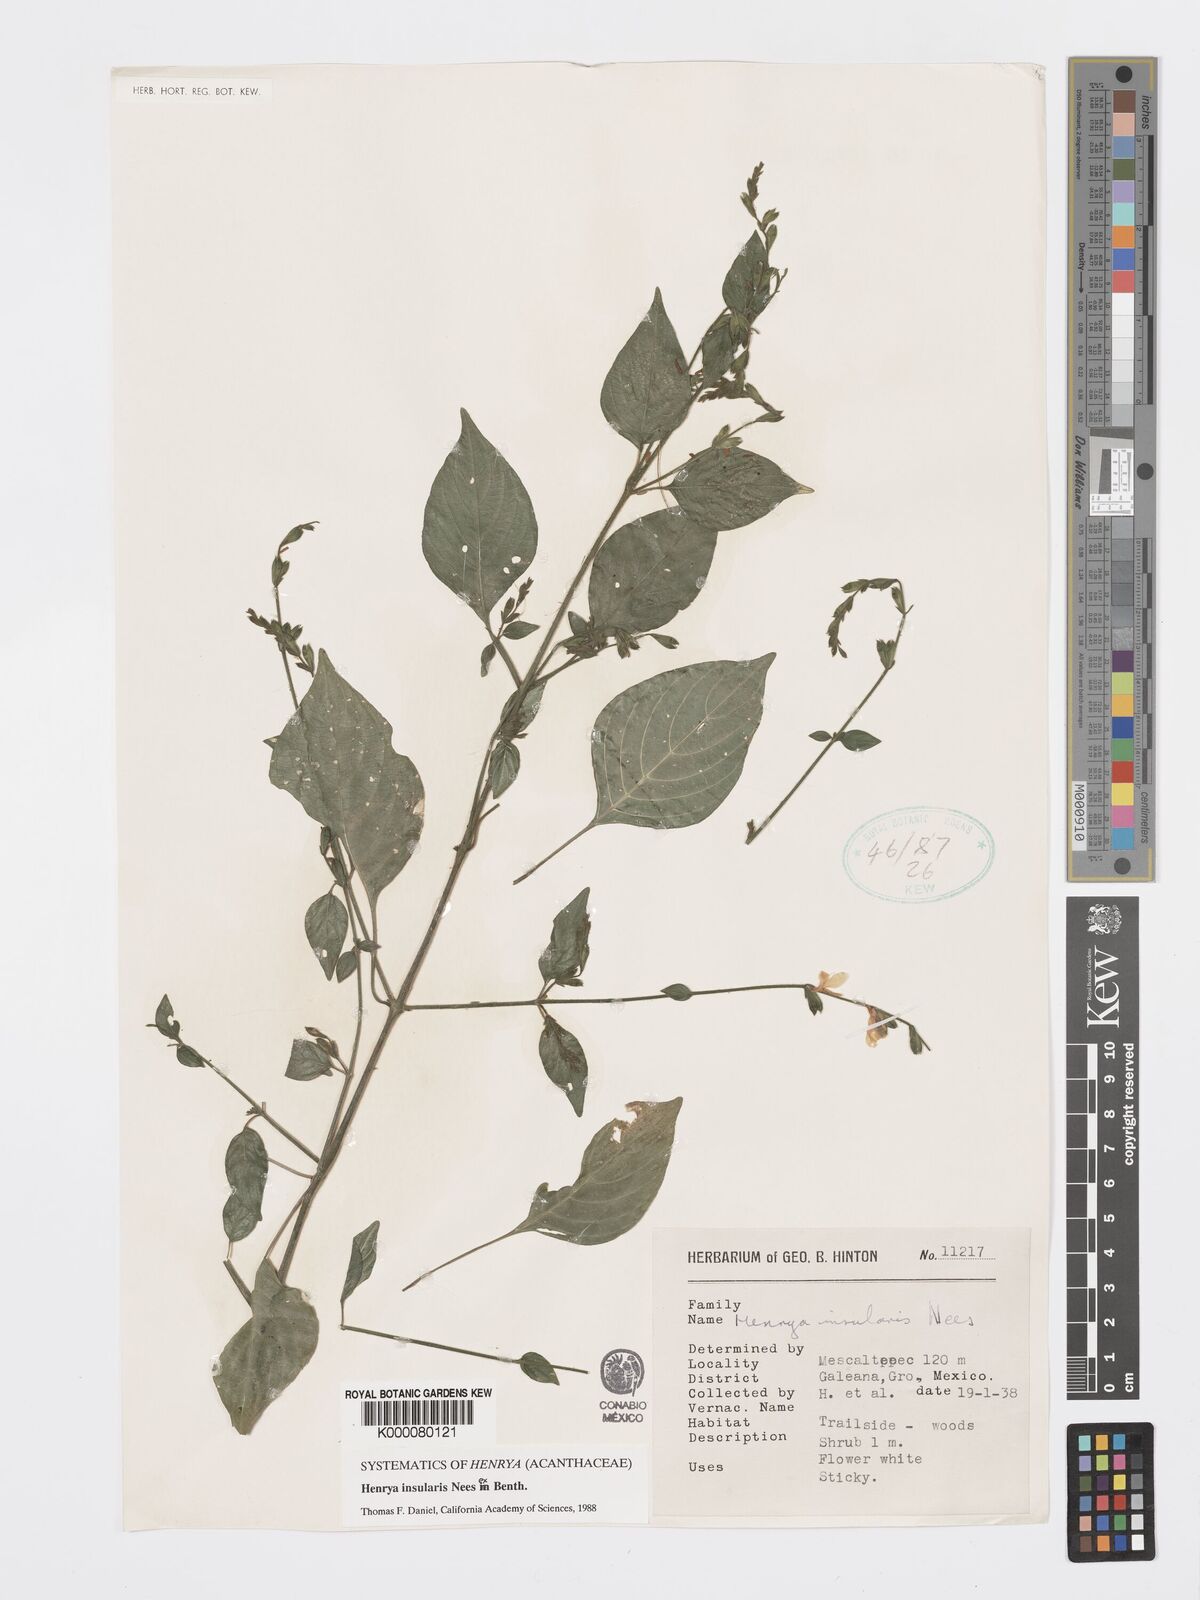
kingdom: Plantae
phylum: Tracheophyta
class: Magnoliopsida
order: Lamiales
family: Acanthaceae
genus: Henrya
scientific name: Henrya
